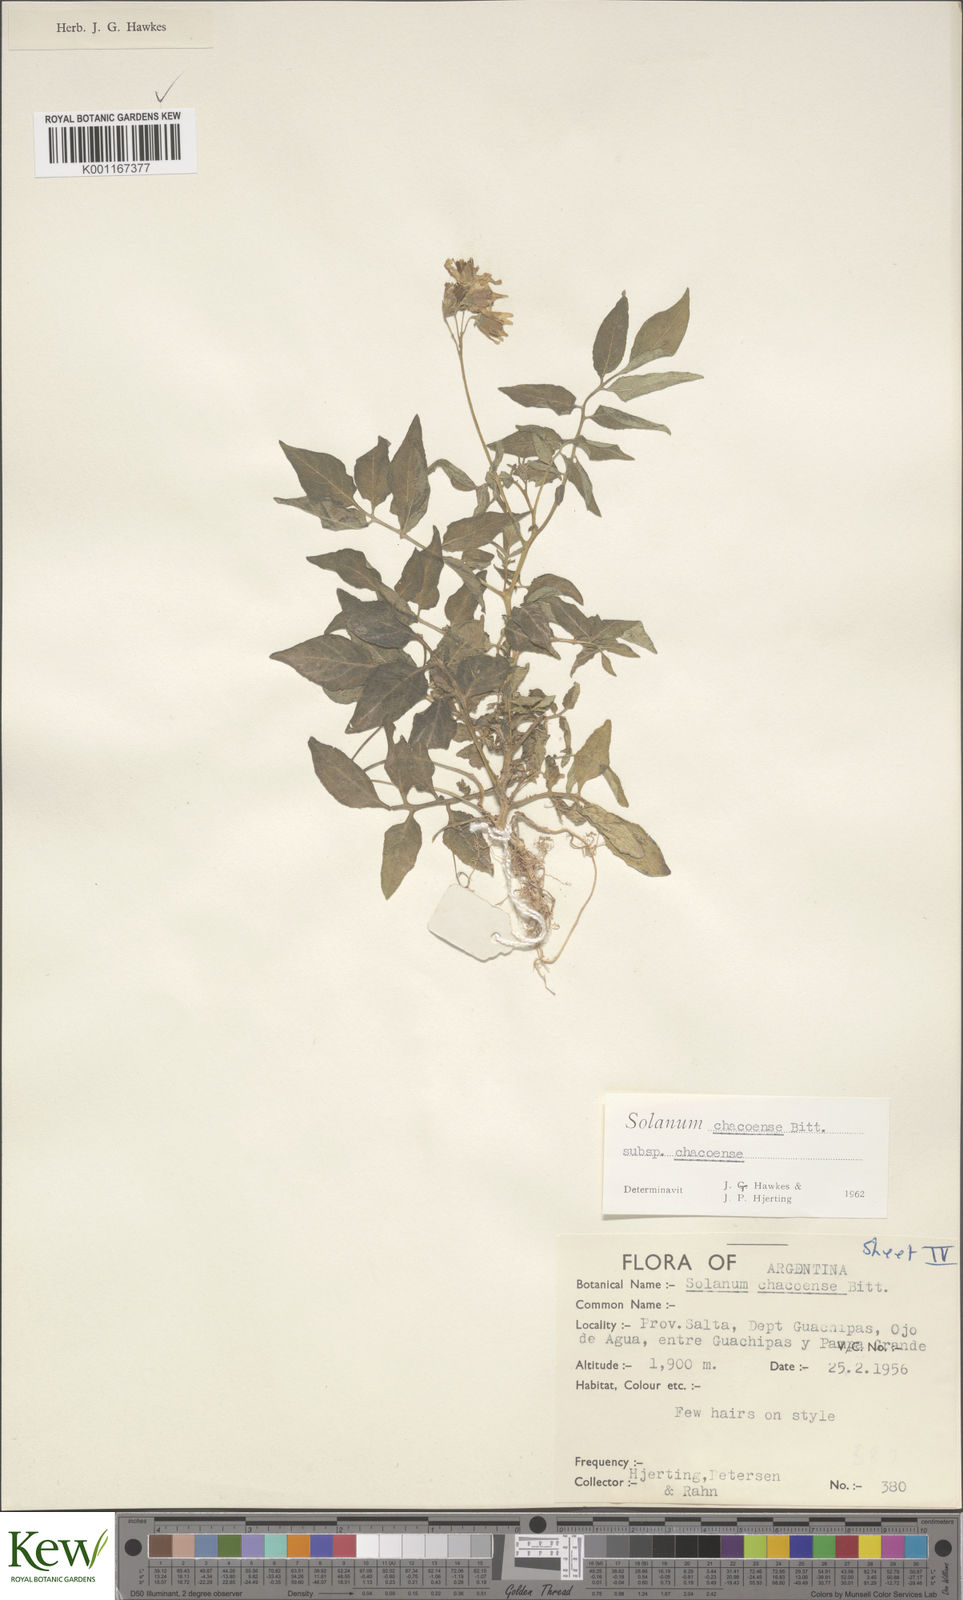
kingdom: Plantae
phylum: Tracheophyta
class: Magnoliopsida
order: Solanales
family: Solanaceae
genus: Solanum
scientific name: Solanum chacoense
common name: Chaco potato
